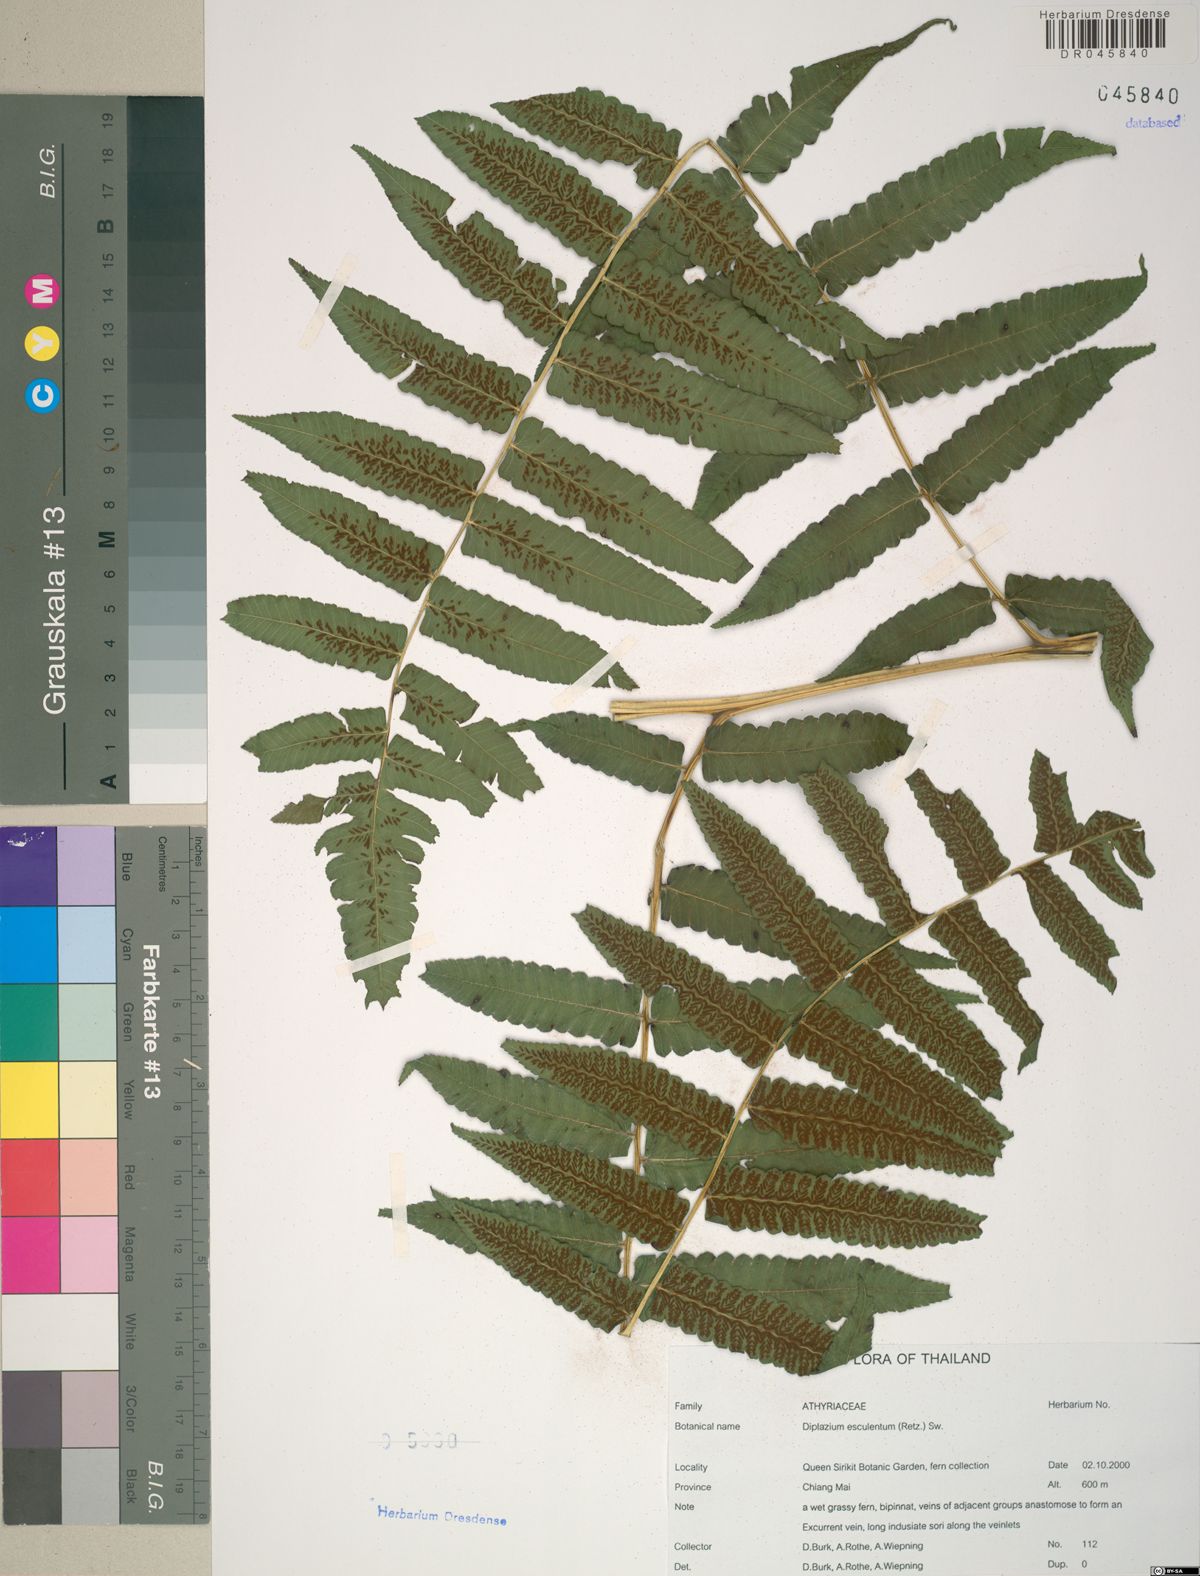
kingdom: Plantae
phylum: Tracheophyta
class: Polypodiopsida
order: Polypodiales
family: Athyriaceae
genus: Diplazium
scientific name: Diplazium esculentum
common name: Vegetable fern
